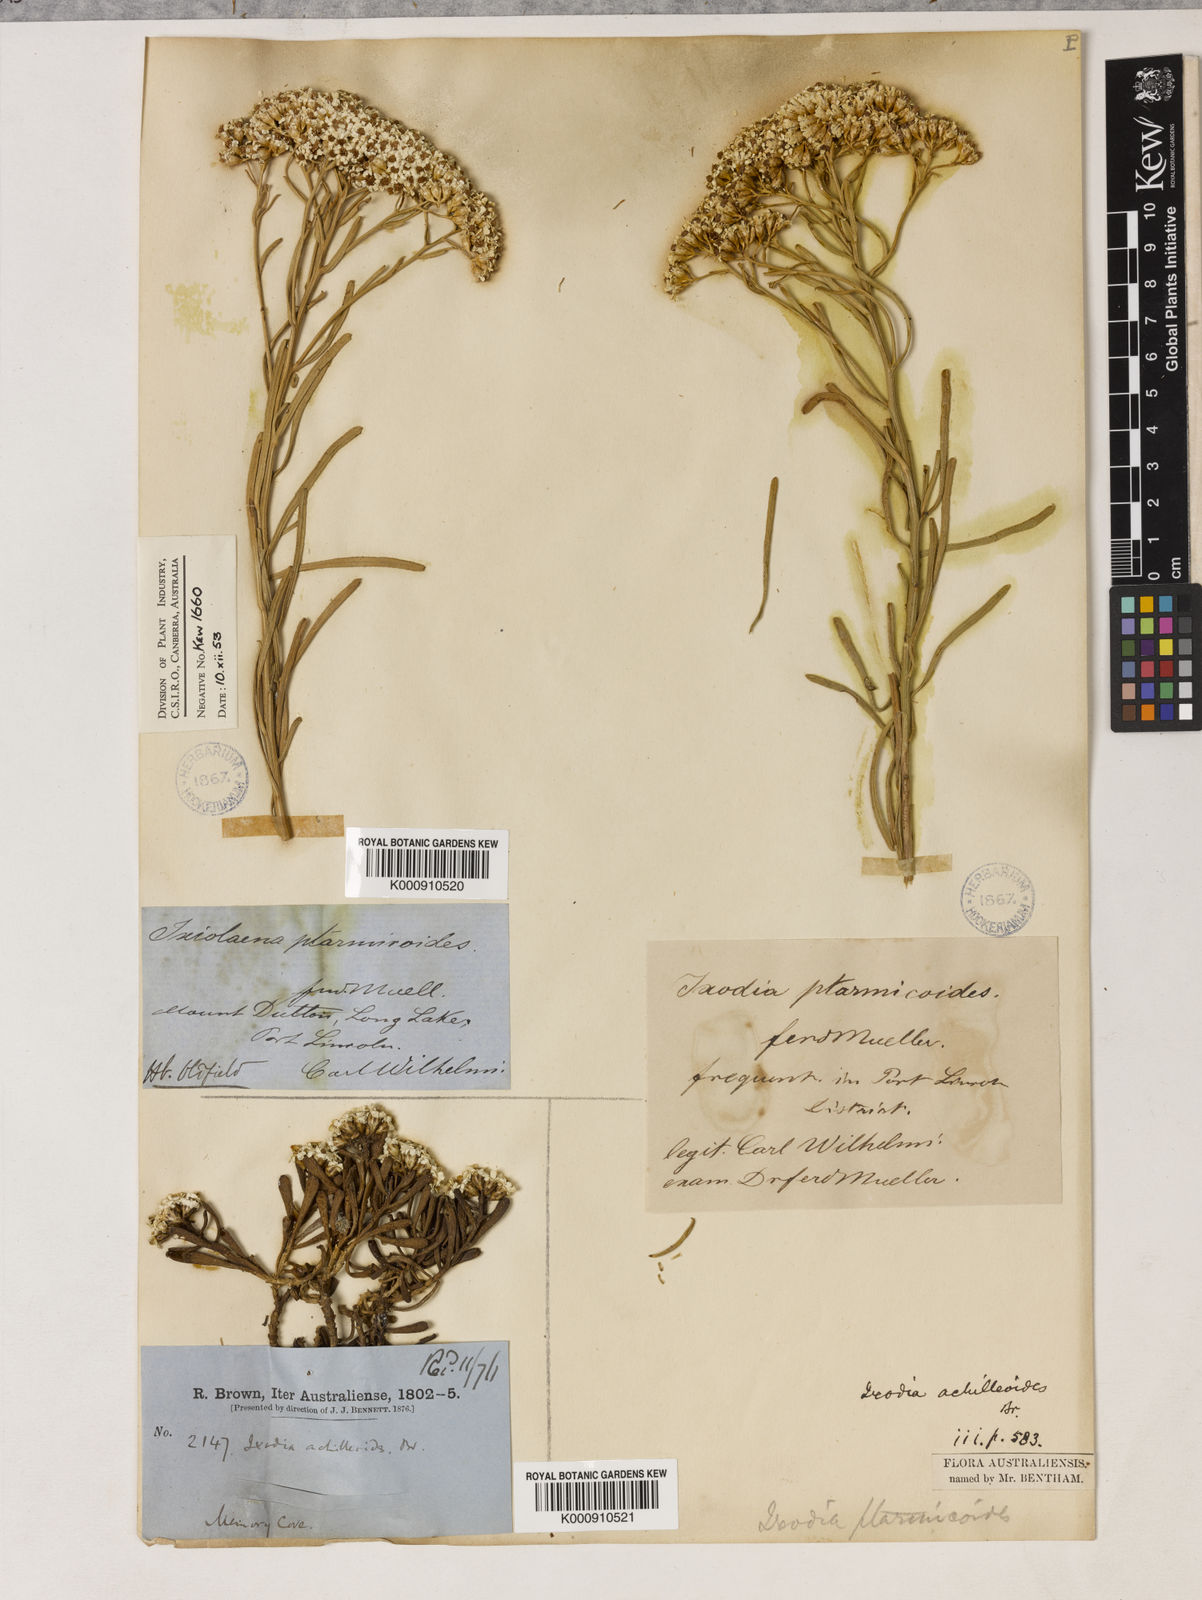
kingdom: Plantae
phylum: Tracheophyta
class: Magnoliopsida
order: Asterales
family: Asteraceae
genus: Ixodia
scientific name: Ixodia achillaeoides
